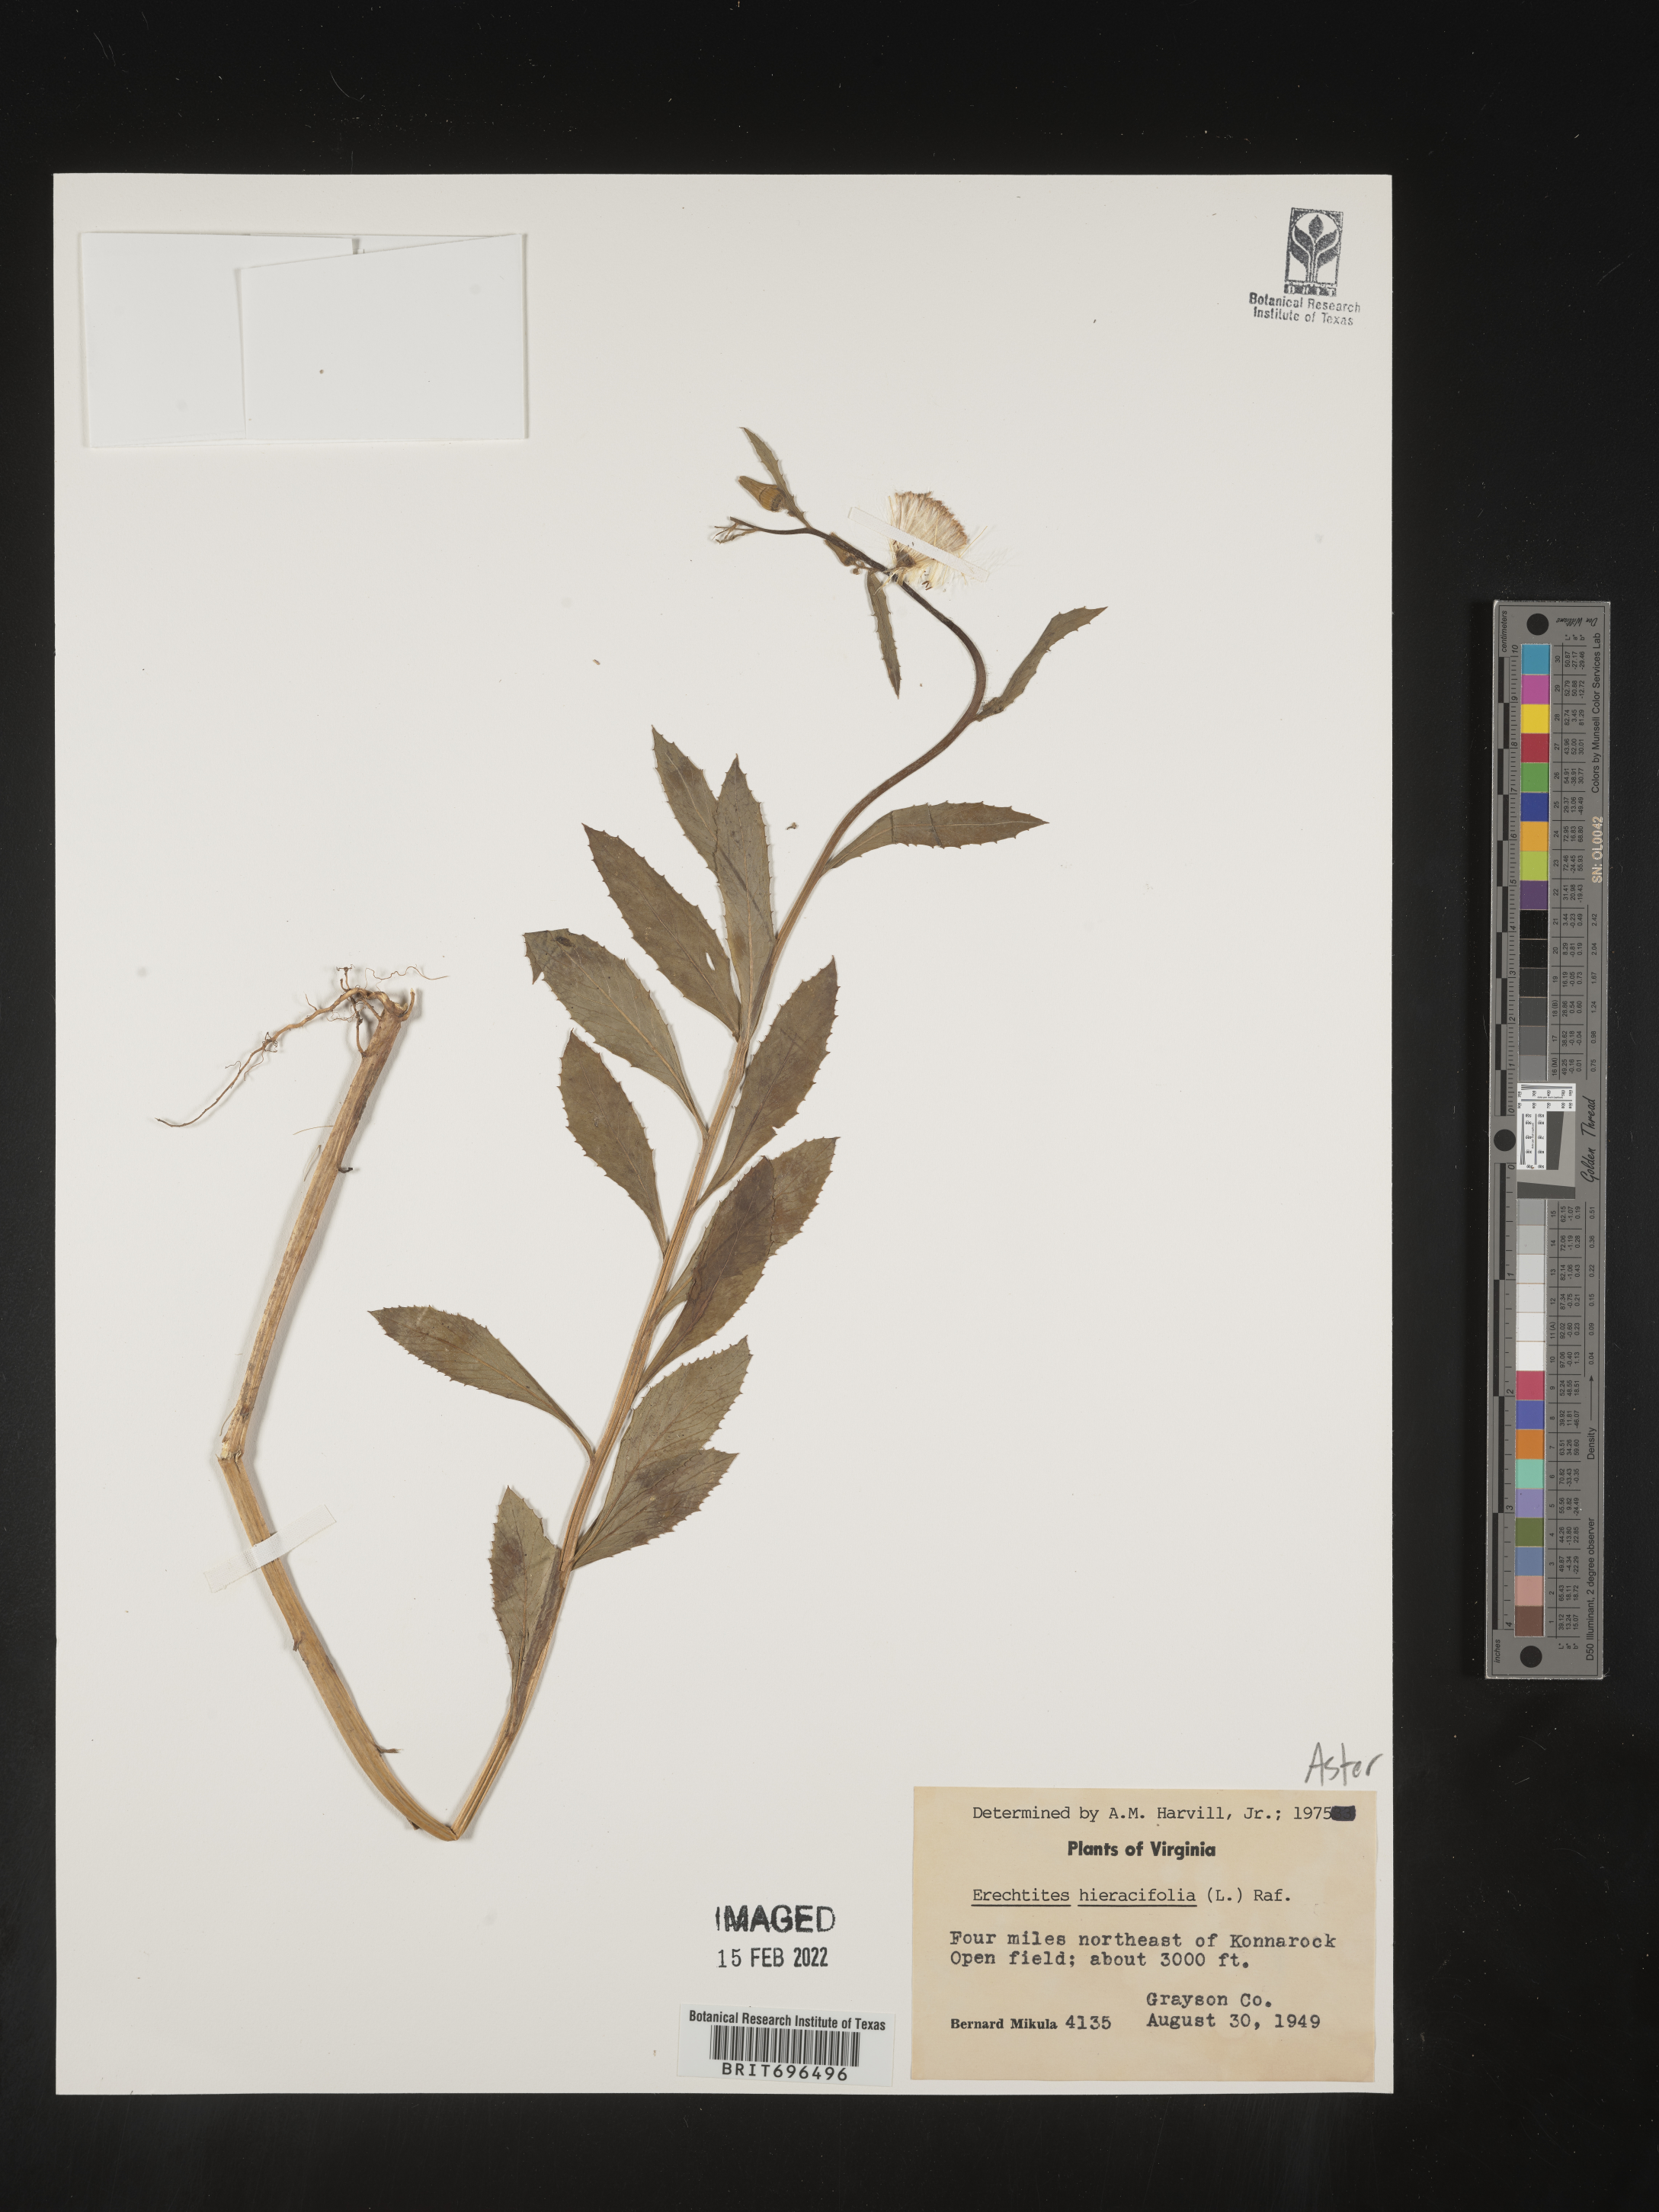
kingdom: Plantae
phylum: Tracheophyta
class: Magnoliopsida
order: Asterales
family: Asteraceae
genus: Erechtites
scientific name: Erechtites hieraciifolius
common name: American burnweed
